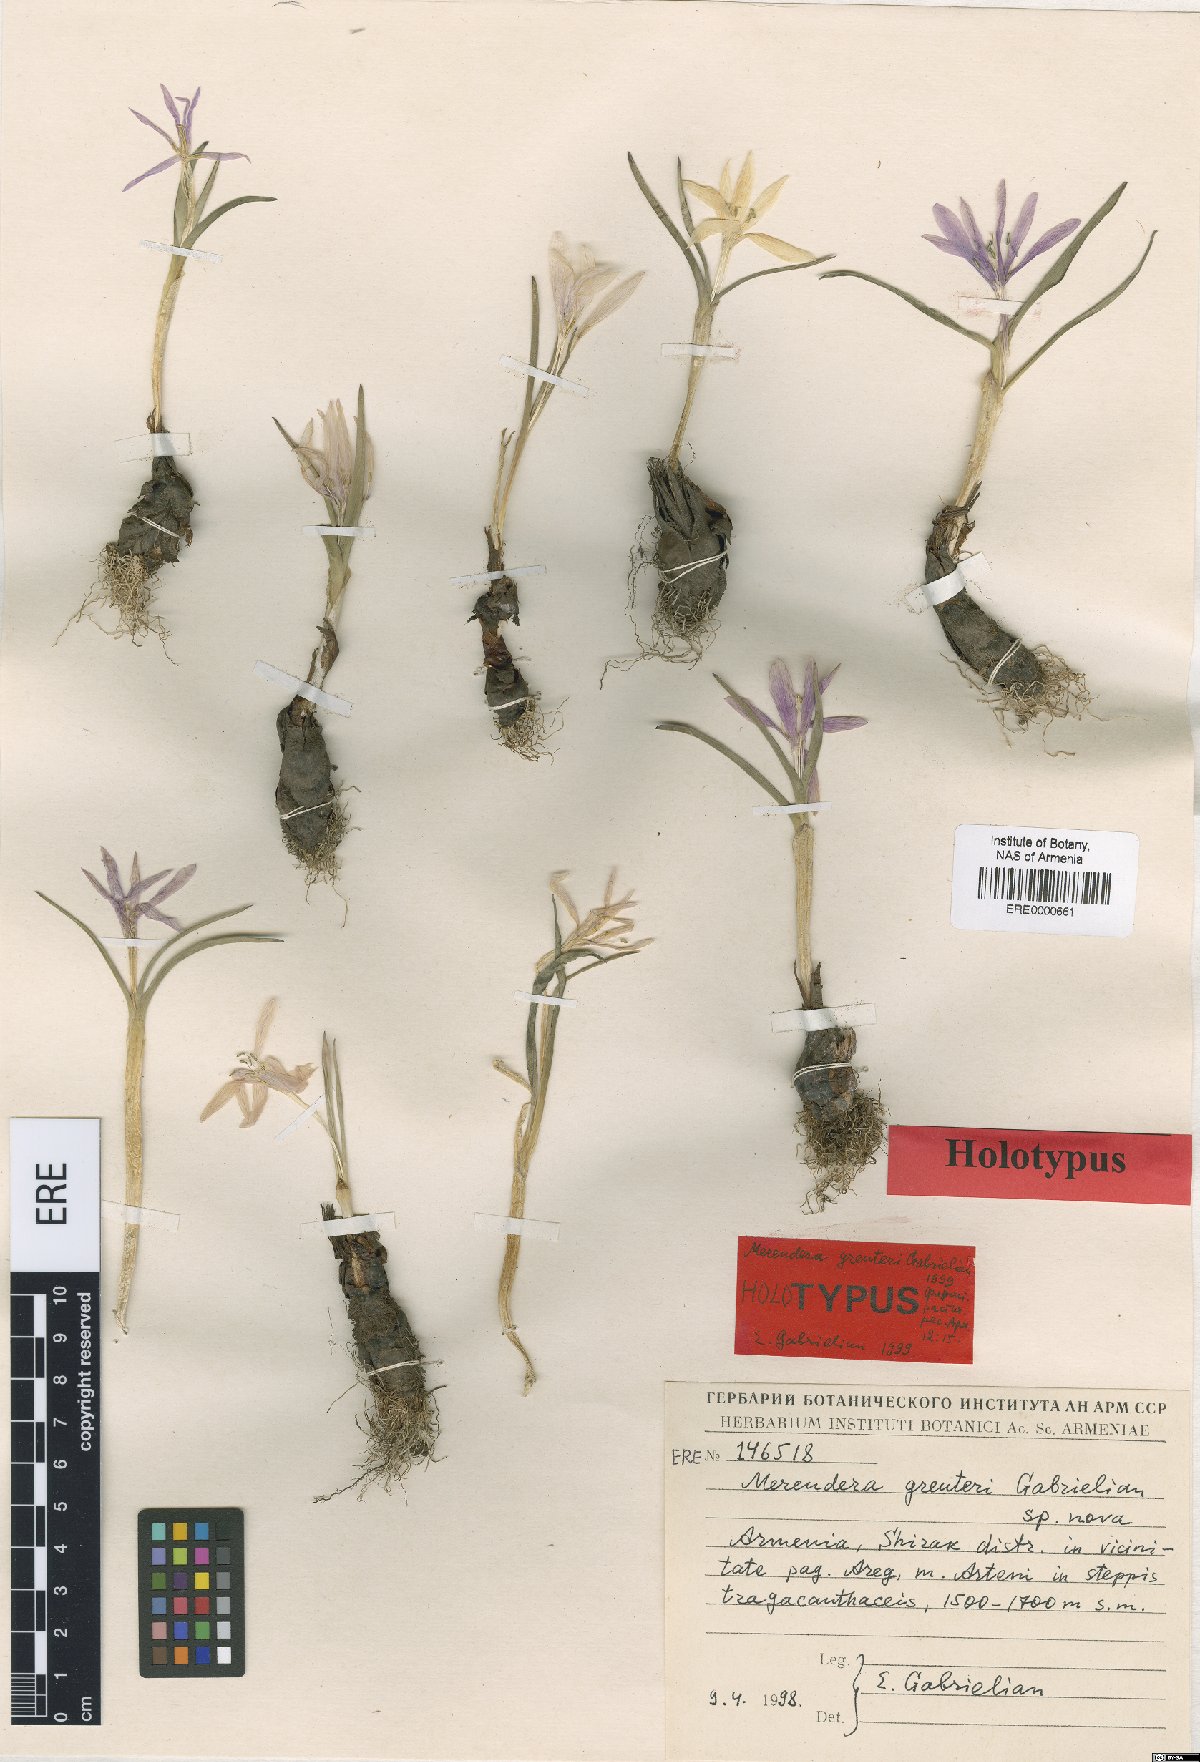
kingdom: Plantae
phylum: Tracheophyta
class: Liliopsida
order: Liliales
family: Colchicaceae
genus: Colchicum
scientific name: Colchicum trigynum
